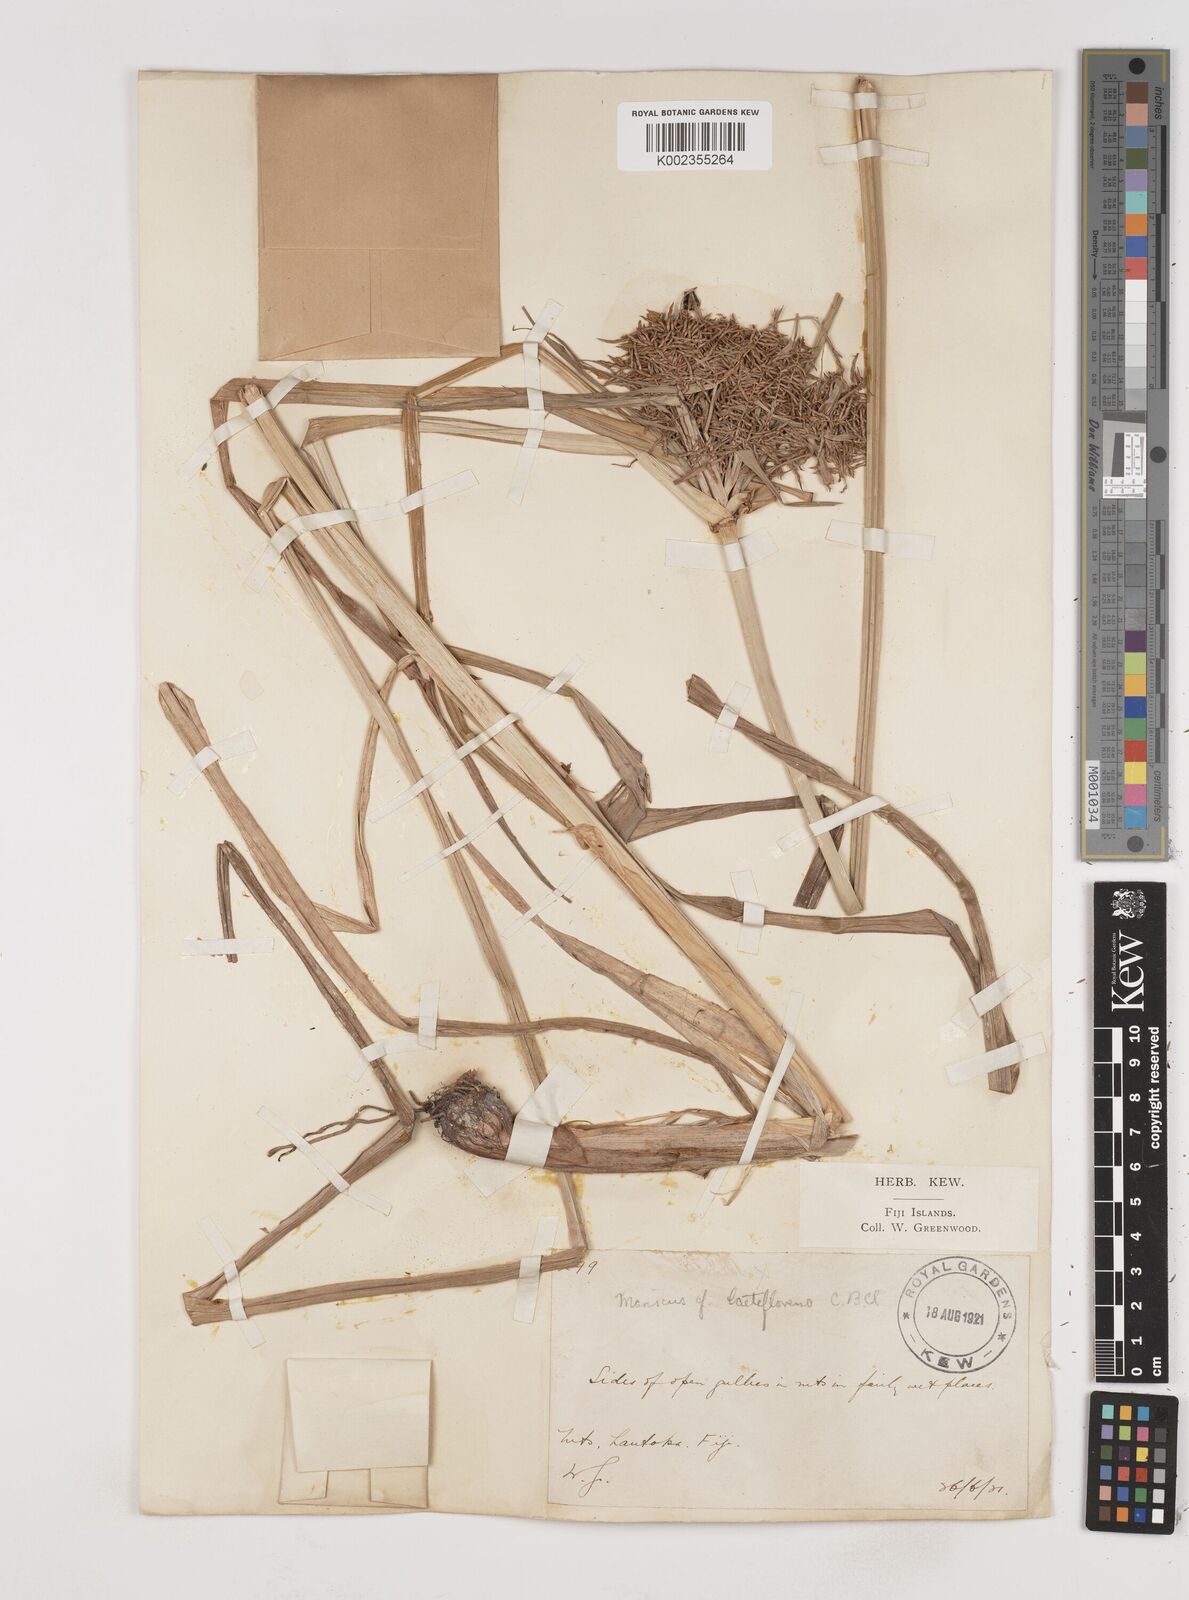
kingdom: Plantae
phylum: Tracheophyta
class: Liliopsida
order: Poales
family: Cyperaceae
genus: Cyperus
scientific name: Cyperus odoratus
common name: Fragrant flatsedge
